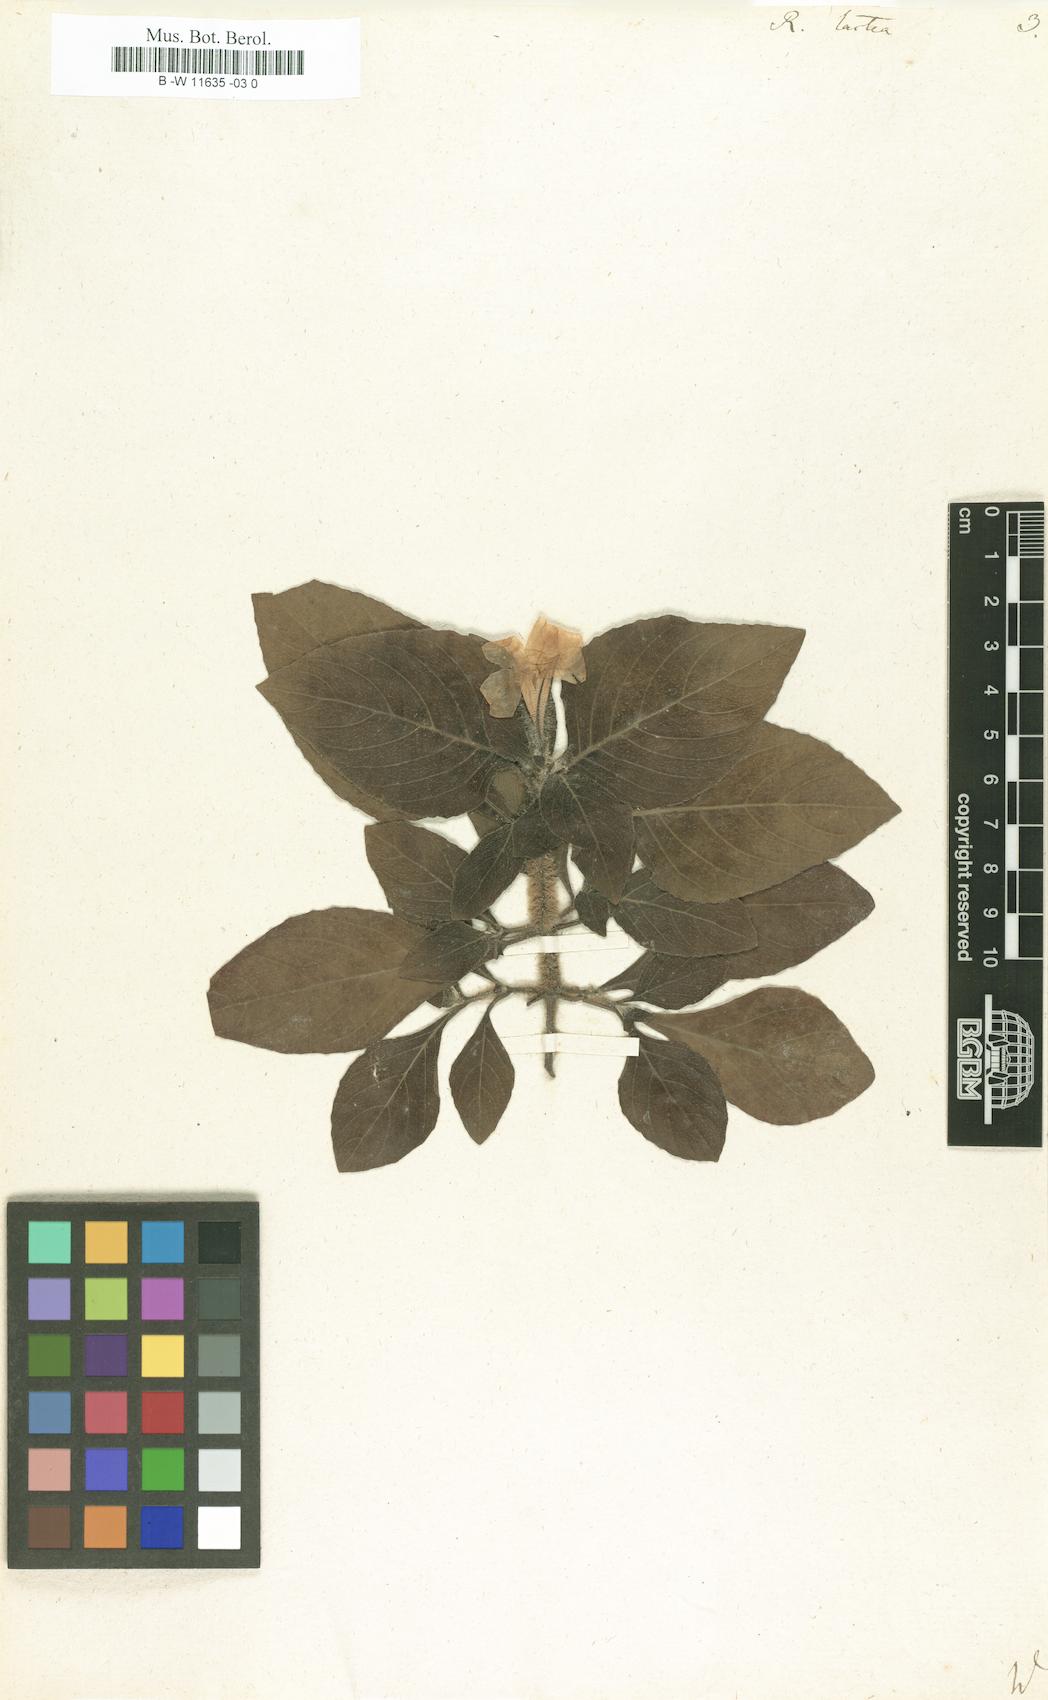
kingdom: Plantae
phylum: Tracheophyta
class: Magnoliopsida
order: Lamiales
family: Acanthaceae
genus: Ruellia
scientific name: Ruellia lactea
